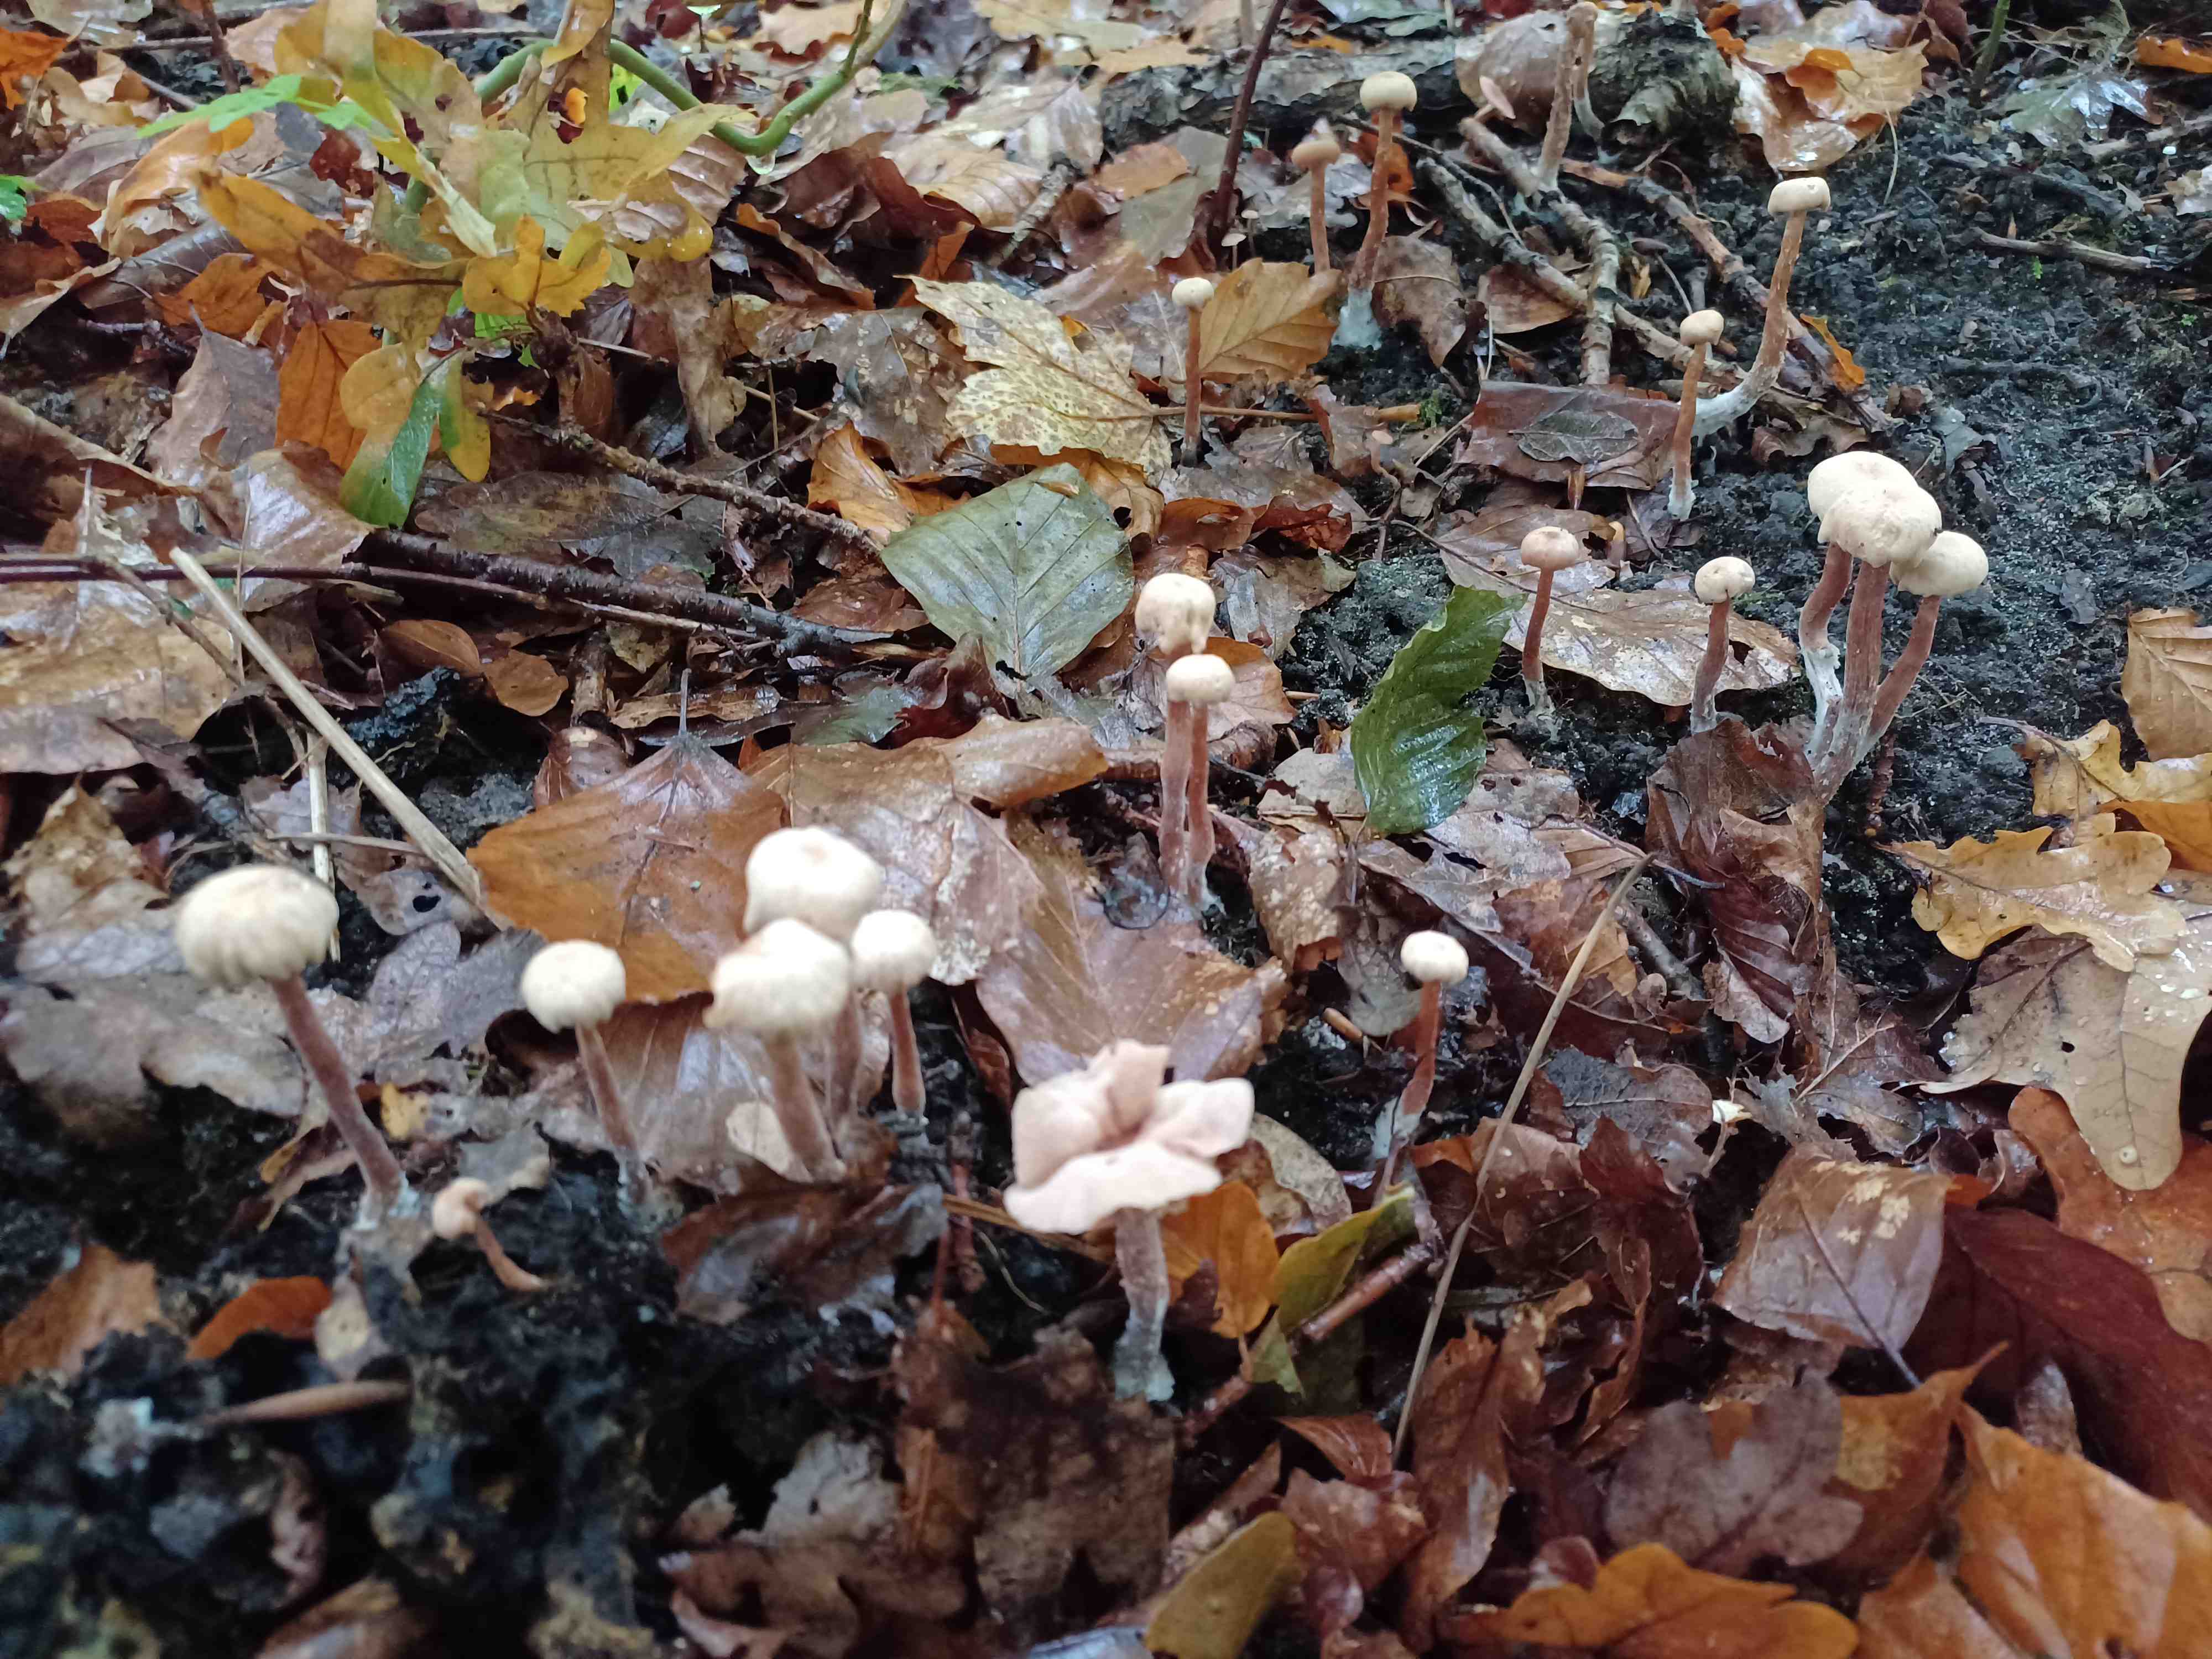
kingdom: Fungi
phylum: Basidiomycota
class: Agaricomycetes
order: Agaricales
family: Hydnangiaceae
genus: Laccaria
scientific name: Laccaria laccata
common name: rød ametysthat
